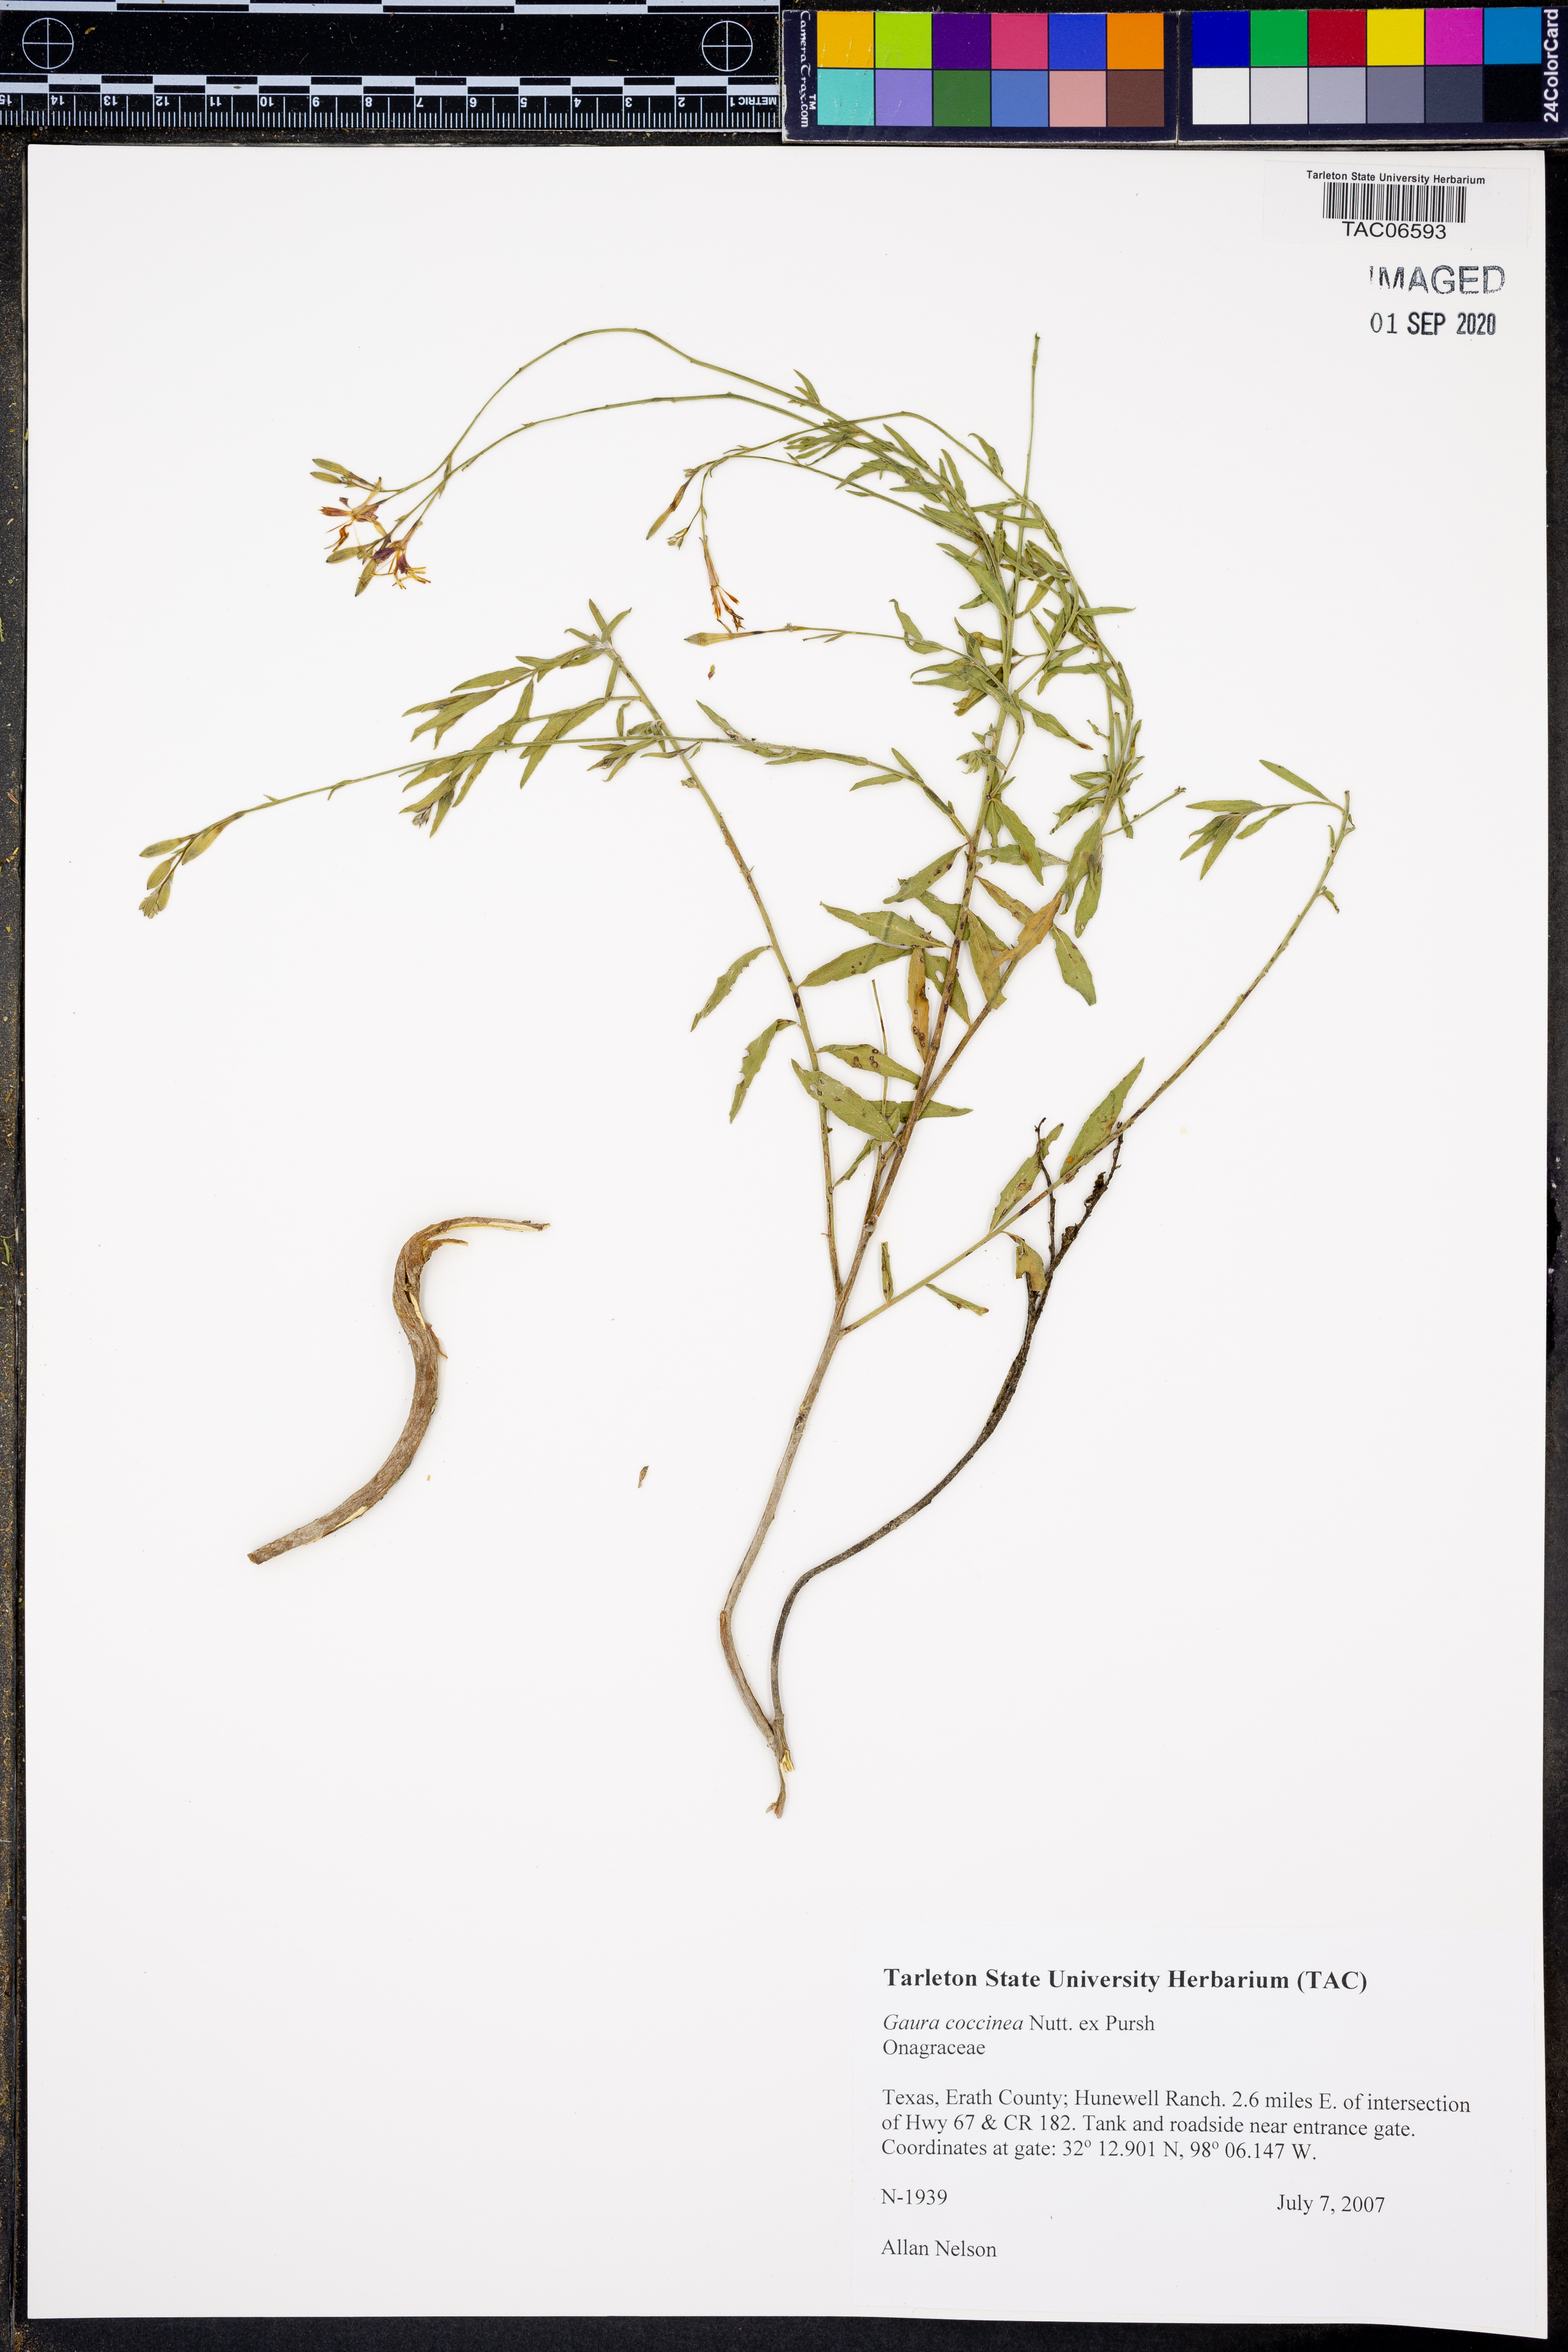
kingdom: Plantae
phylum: Tracheophyta
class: Magnoliopsida
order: Myrtales
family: Onagraceae
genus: Oenothera
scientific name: Oenothera suffrutescens
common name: Scarlet beeblossom
